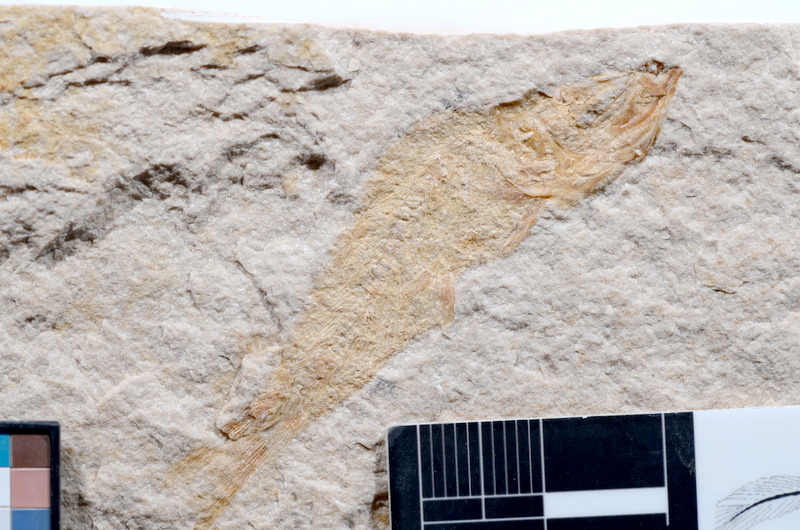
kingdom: Animalia
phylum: Chordata
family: Ascalaboidae
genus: Tharsis
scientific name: Tharsis dubius
